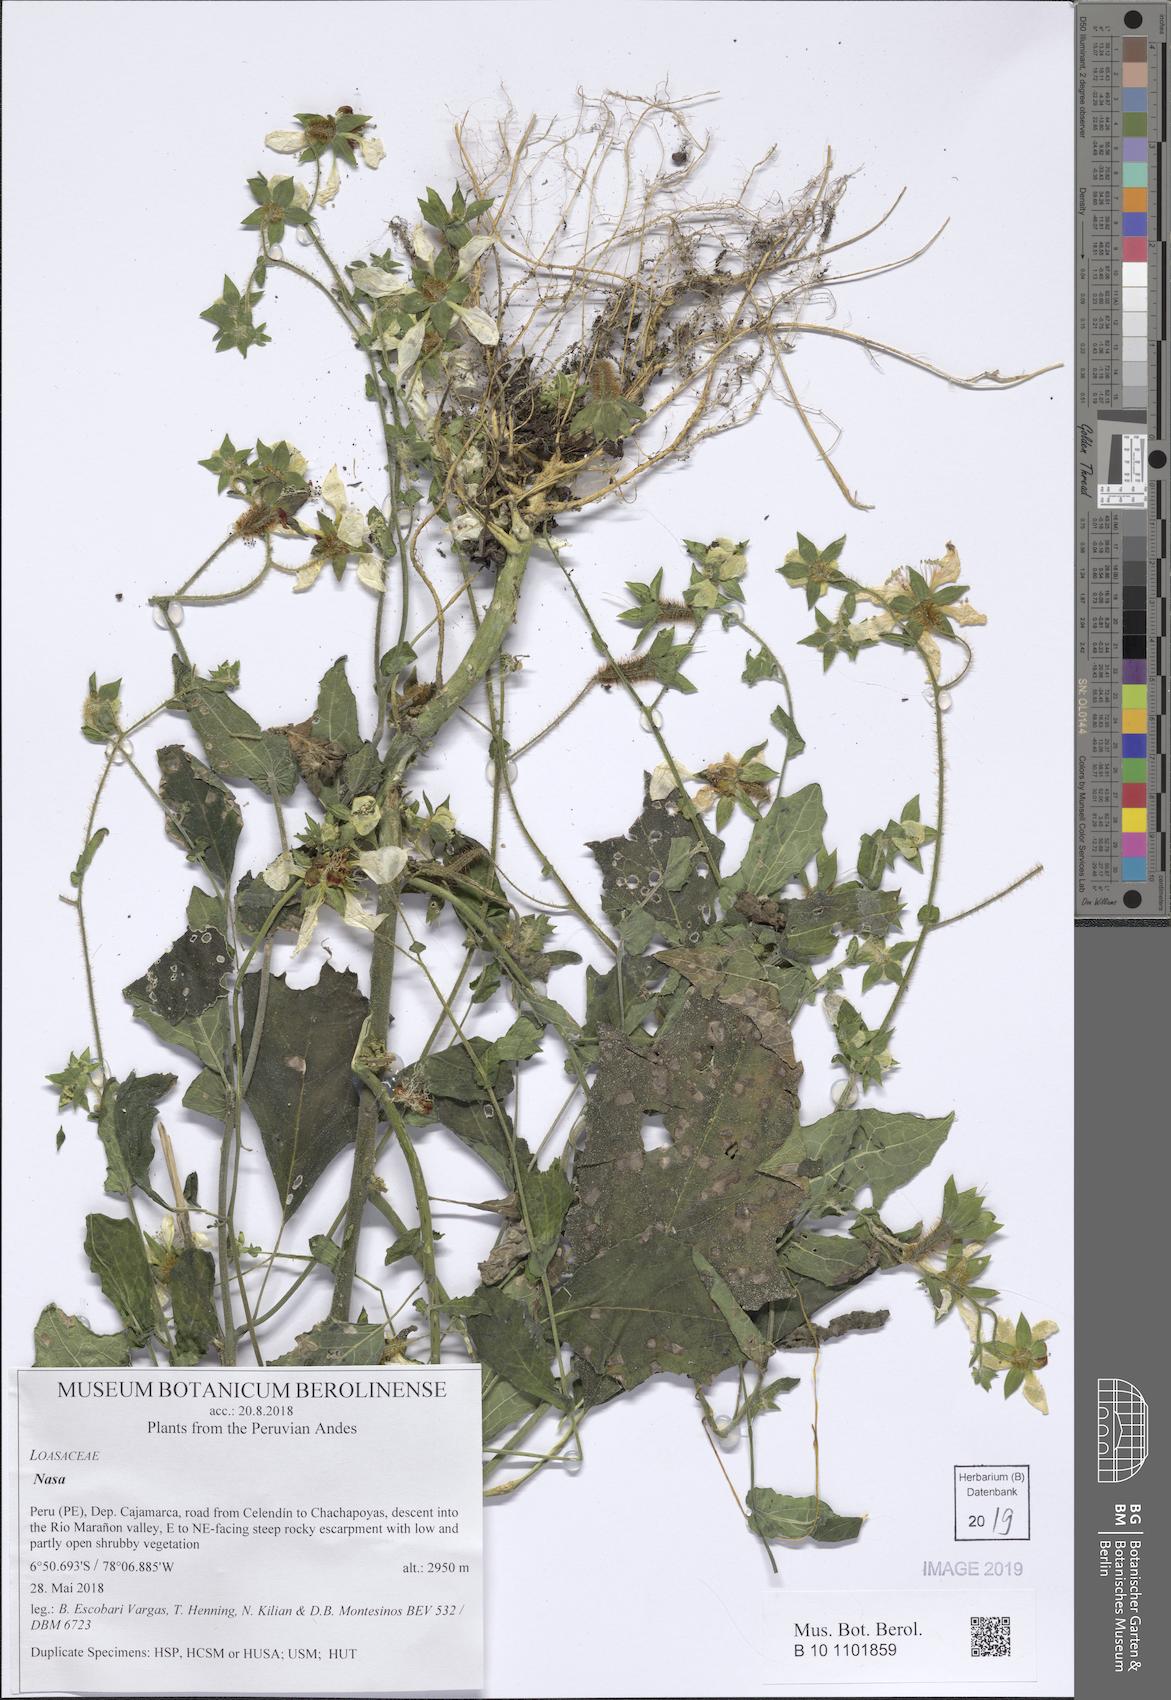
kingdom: Plantae
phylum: Tracheophyta
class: Magnoliopsida
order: Cornales
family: Loasaceae
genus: Nasa
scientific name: Nasa formosissima
